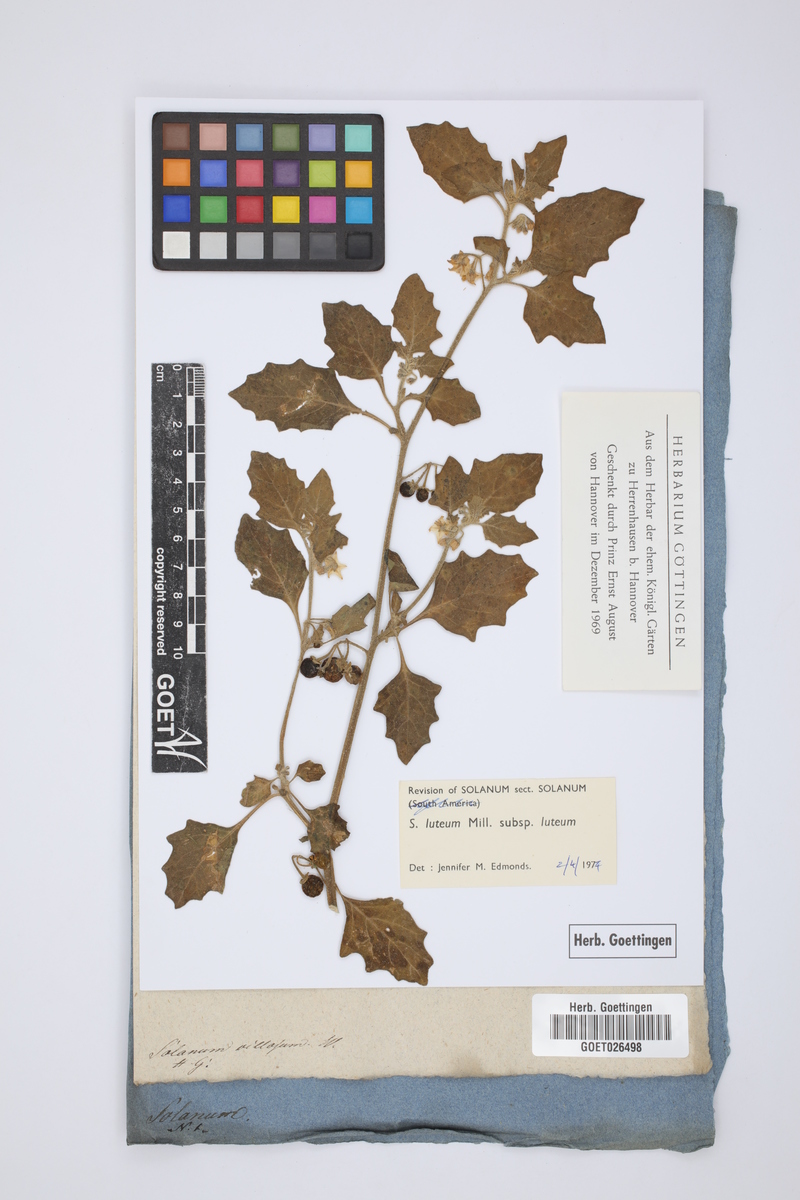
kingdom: Plantae
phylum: Tracheophyta
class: Magnoliopsida
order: Solanales
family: Solanaceae
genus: Solanum
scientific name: Solanum villosum
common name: Red nightshade
